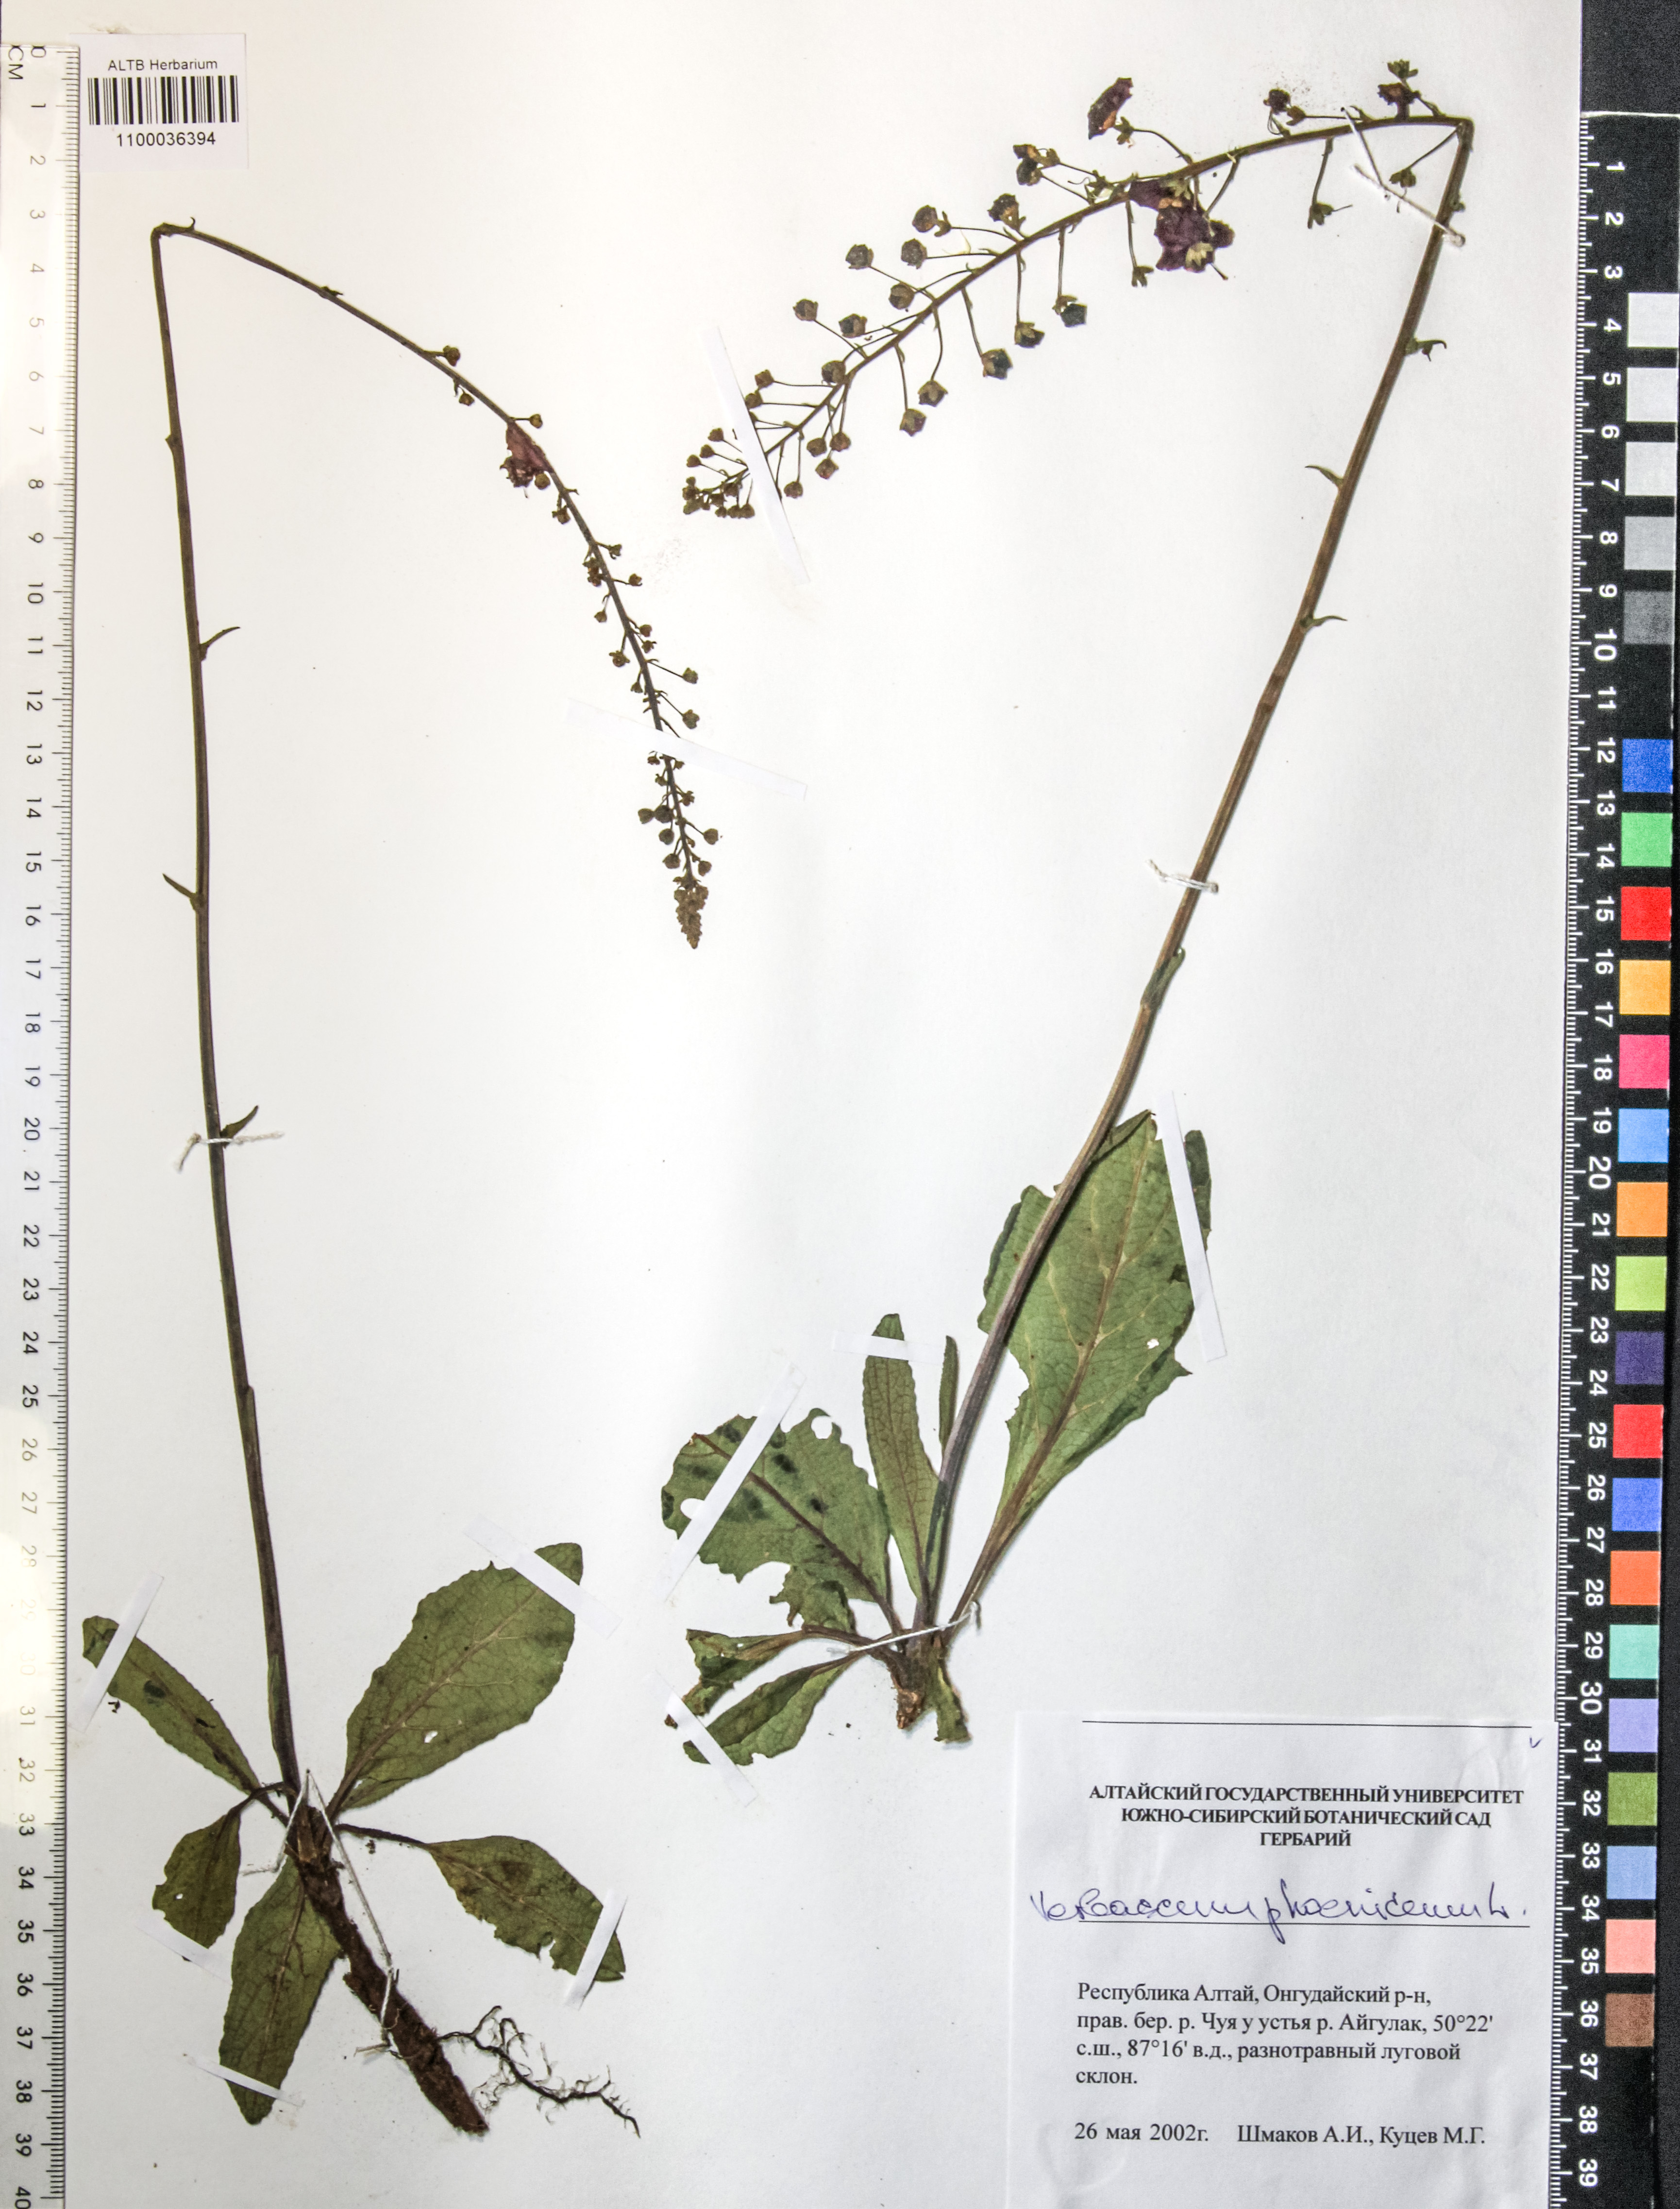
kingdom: Plantae
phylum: Tracheophyta
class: Magnoliopsida
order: Lamiales
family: Scrophulariaceae
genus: Verbascum
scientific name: Verbascum phoeniceum
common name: Purple mullein
